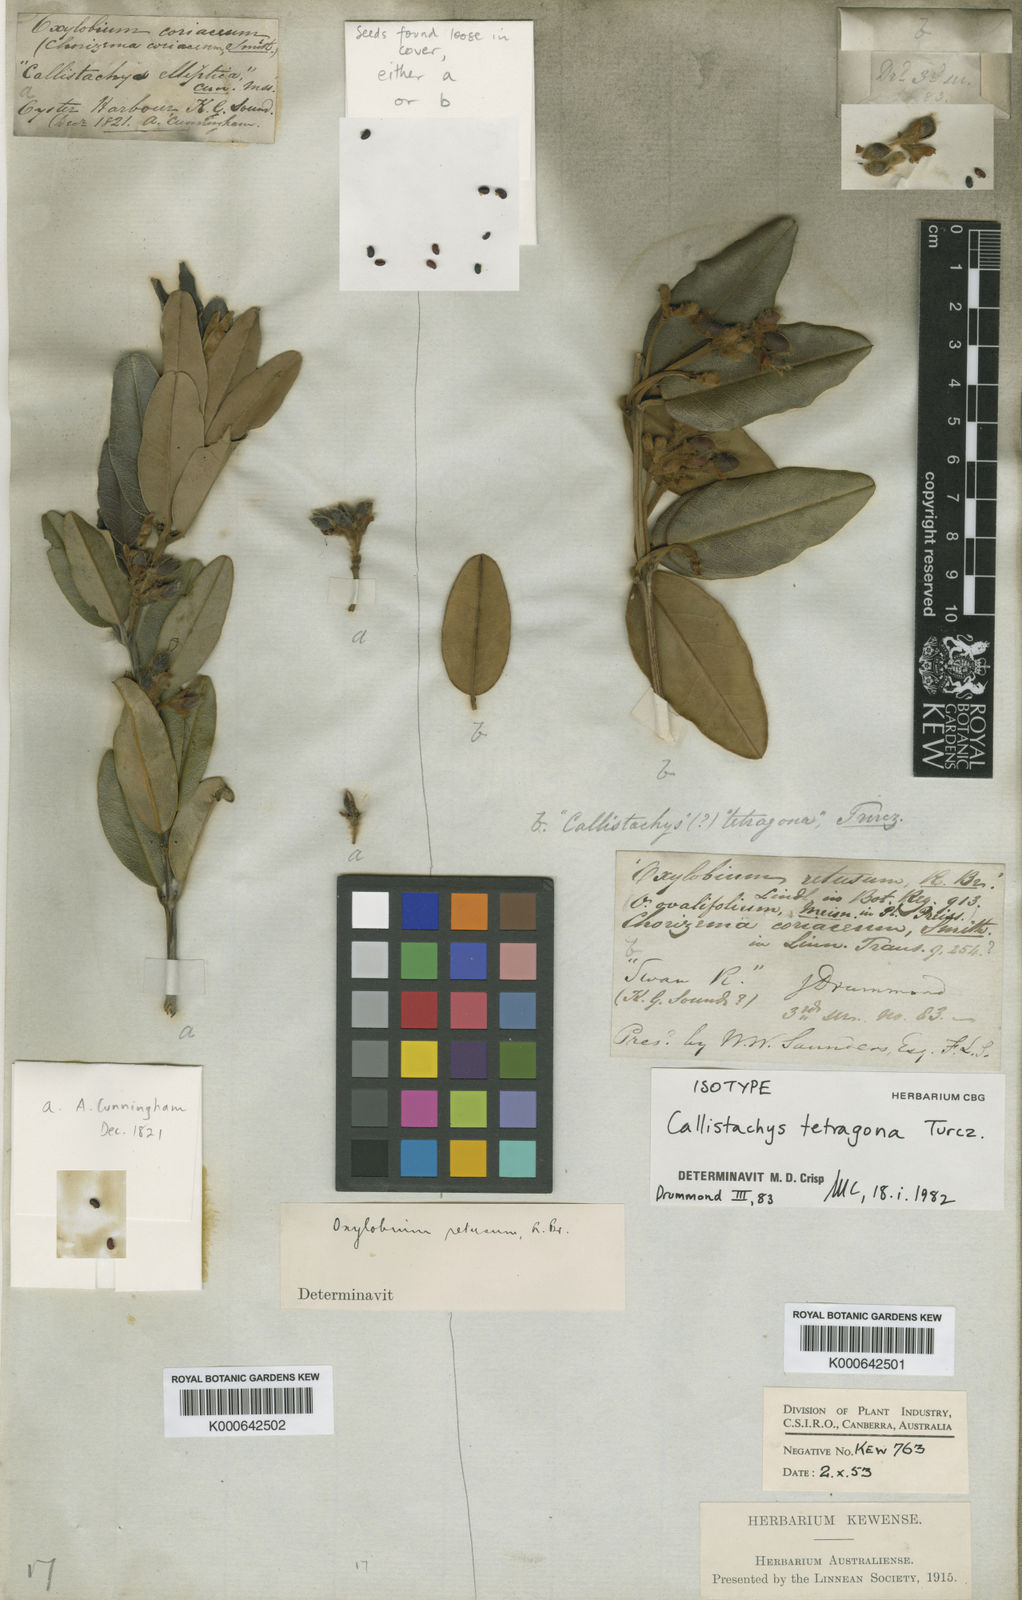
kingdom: Plantae
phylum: Tracheophyta
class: Magnoliopsida
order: Fabales
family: Fabaceae
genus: Gastrolobium
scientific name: Gastrolobium coriaceum
